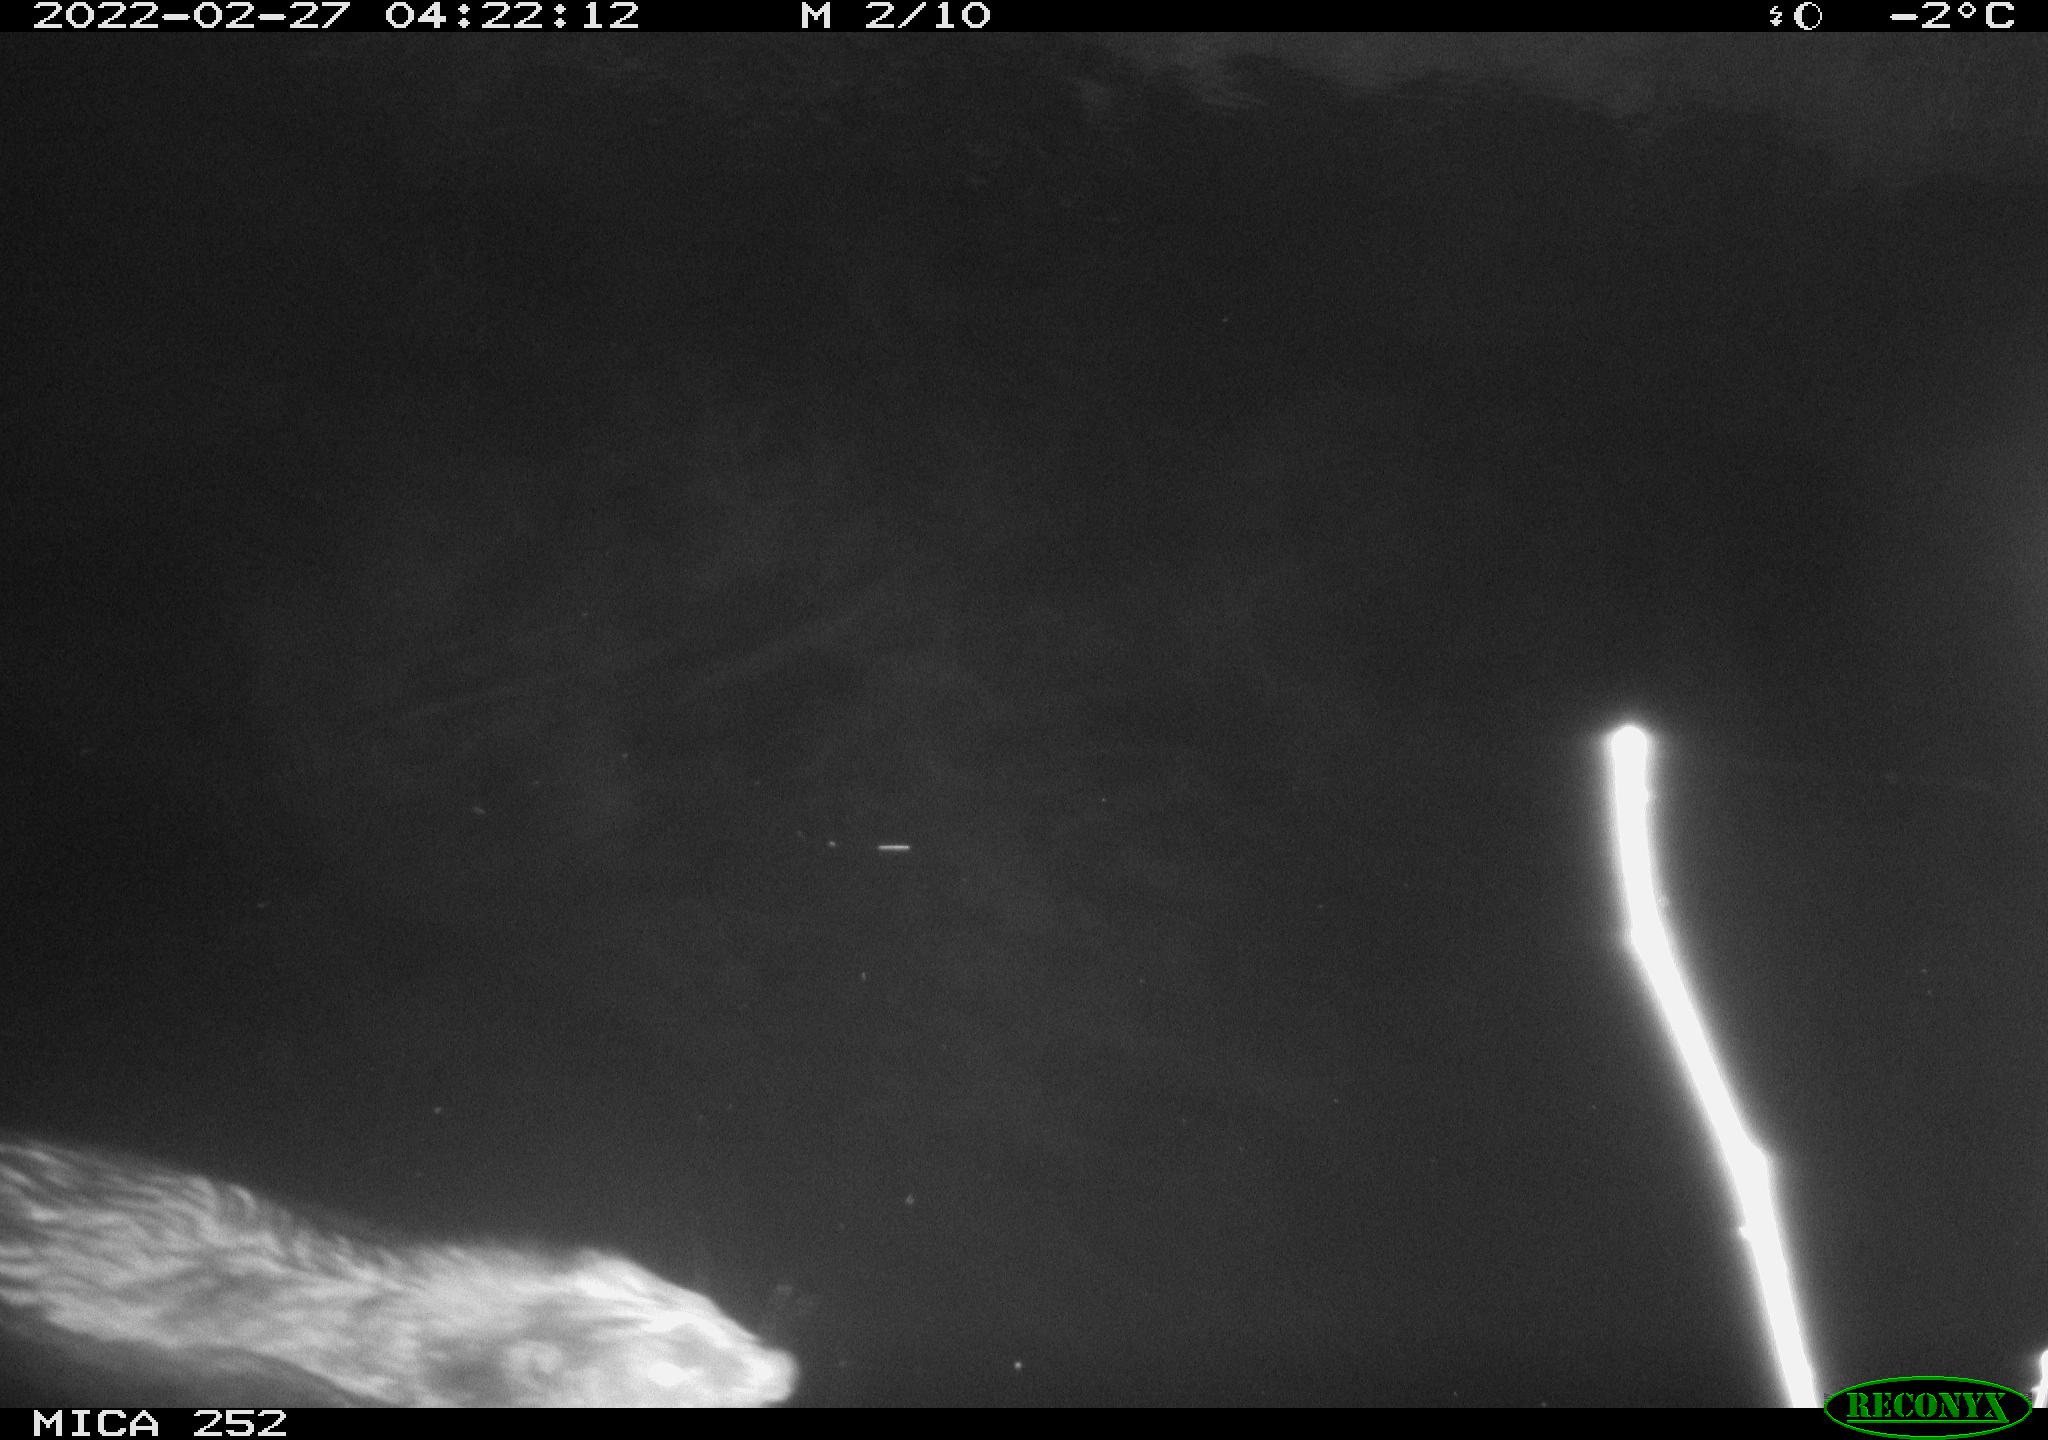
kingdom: Animalia
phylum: Chordata
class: Mammalia
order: Rodentia
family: Castoridae
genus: Castor
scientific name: Castor fiber
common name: Eurasian beaver
